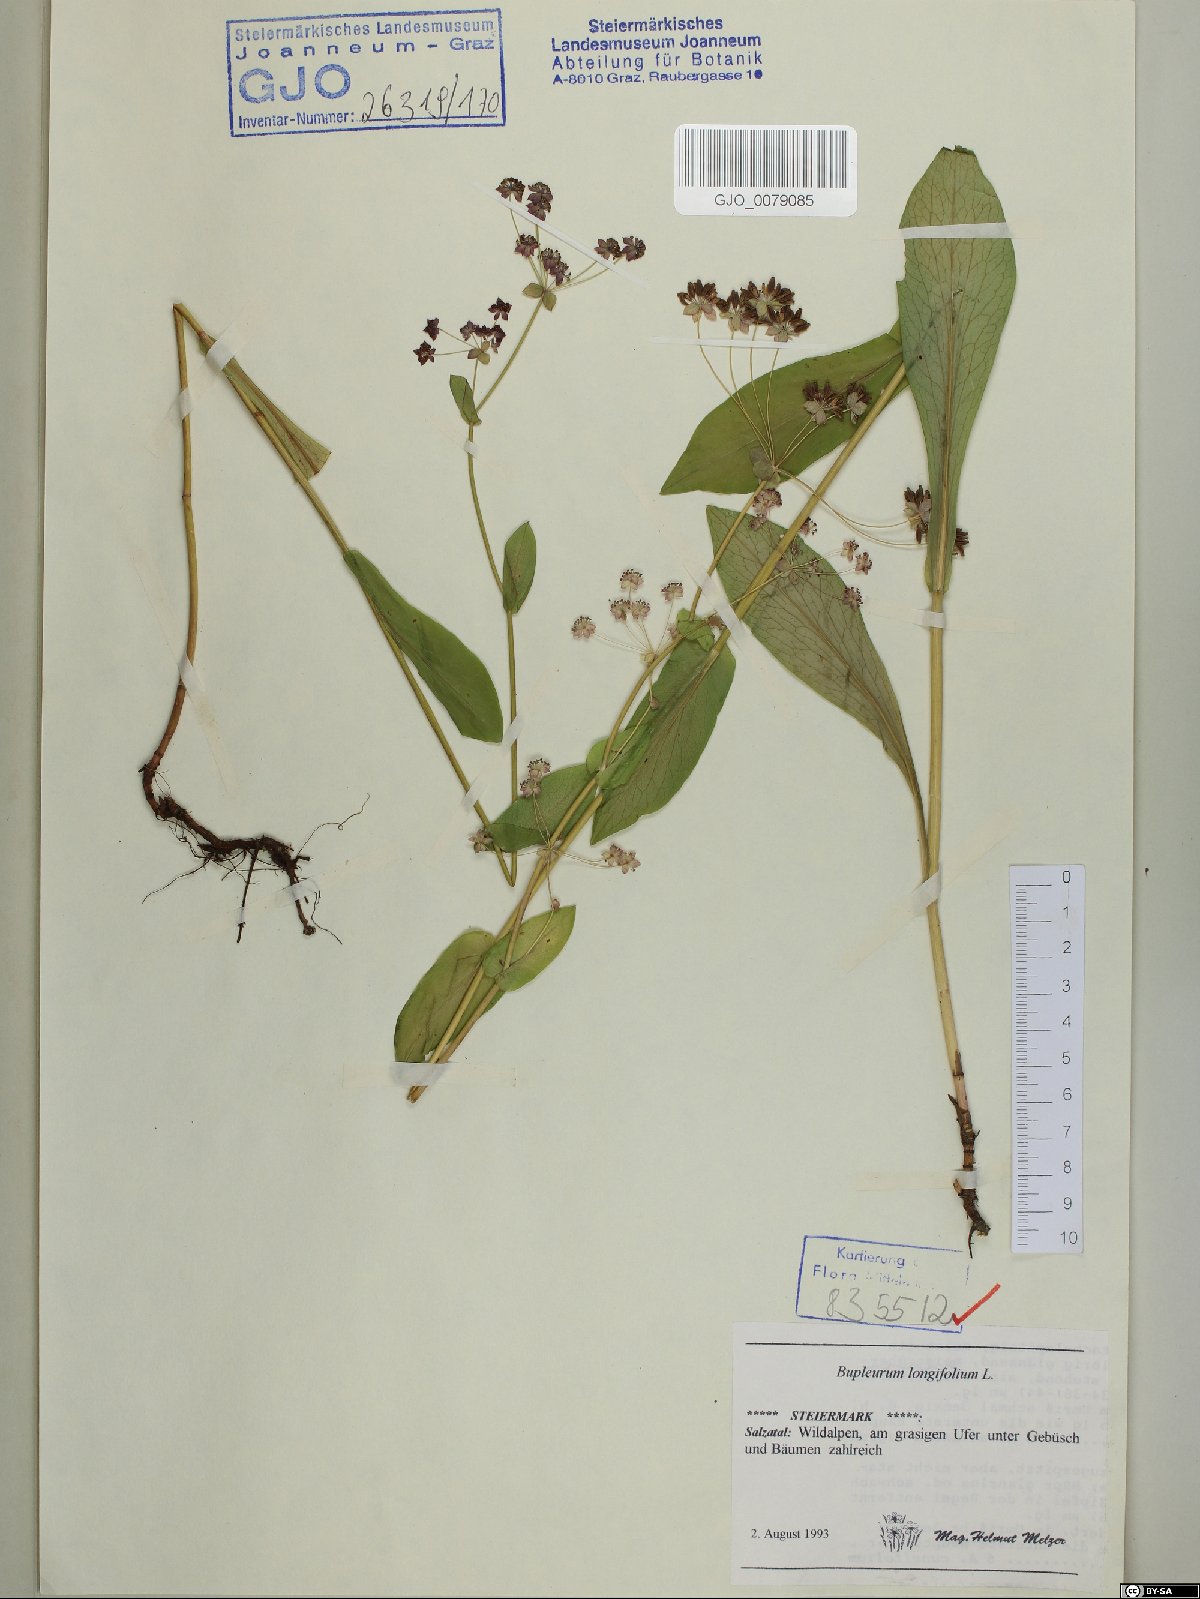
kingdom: Plantae
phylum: Tracheophyta
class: Magnoliopsida
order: Apiales
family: Apiaceae
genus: Bupleurum
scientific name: Bupleurum longifolium
